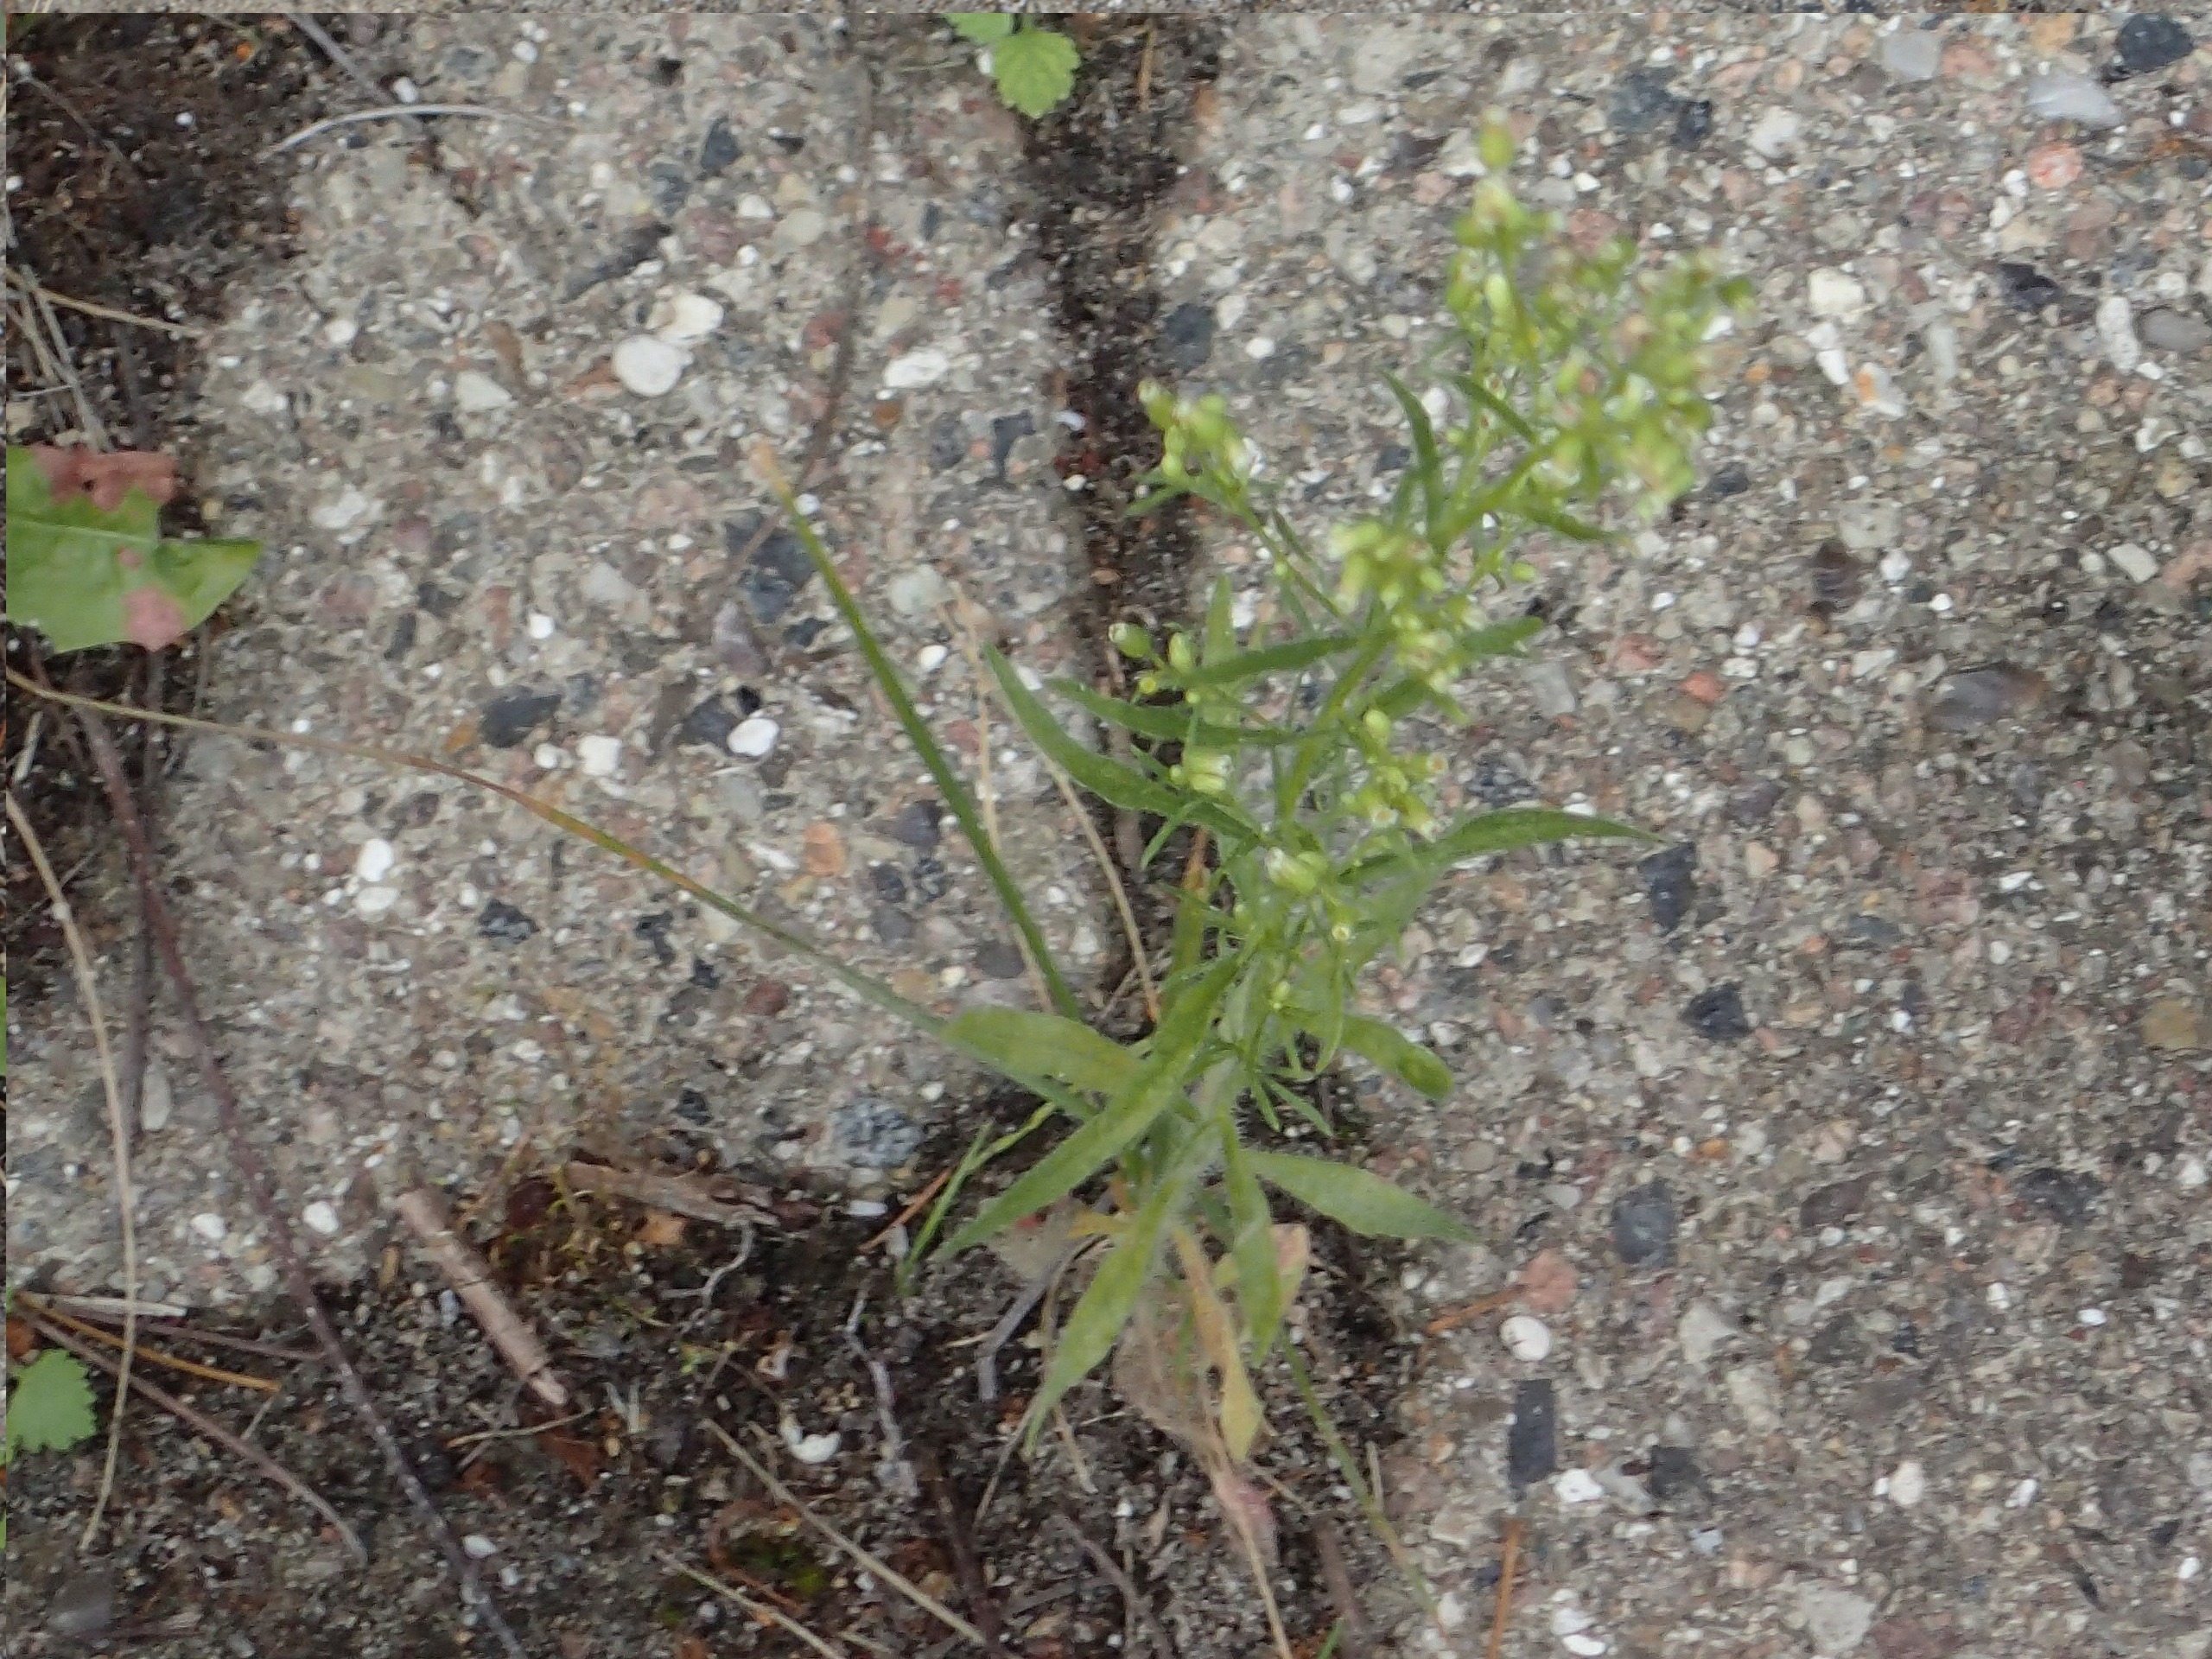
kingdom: Plantae
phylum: Tracheophyta
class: Magnoliopsida
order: Asterales
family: Asteraceae
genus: Erigeron
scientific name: Erigeron canadensis
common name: Kanadisk bakkestjerne
